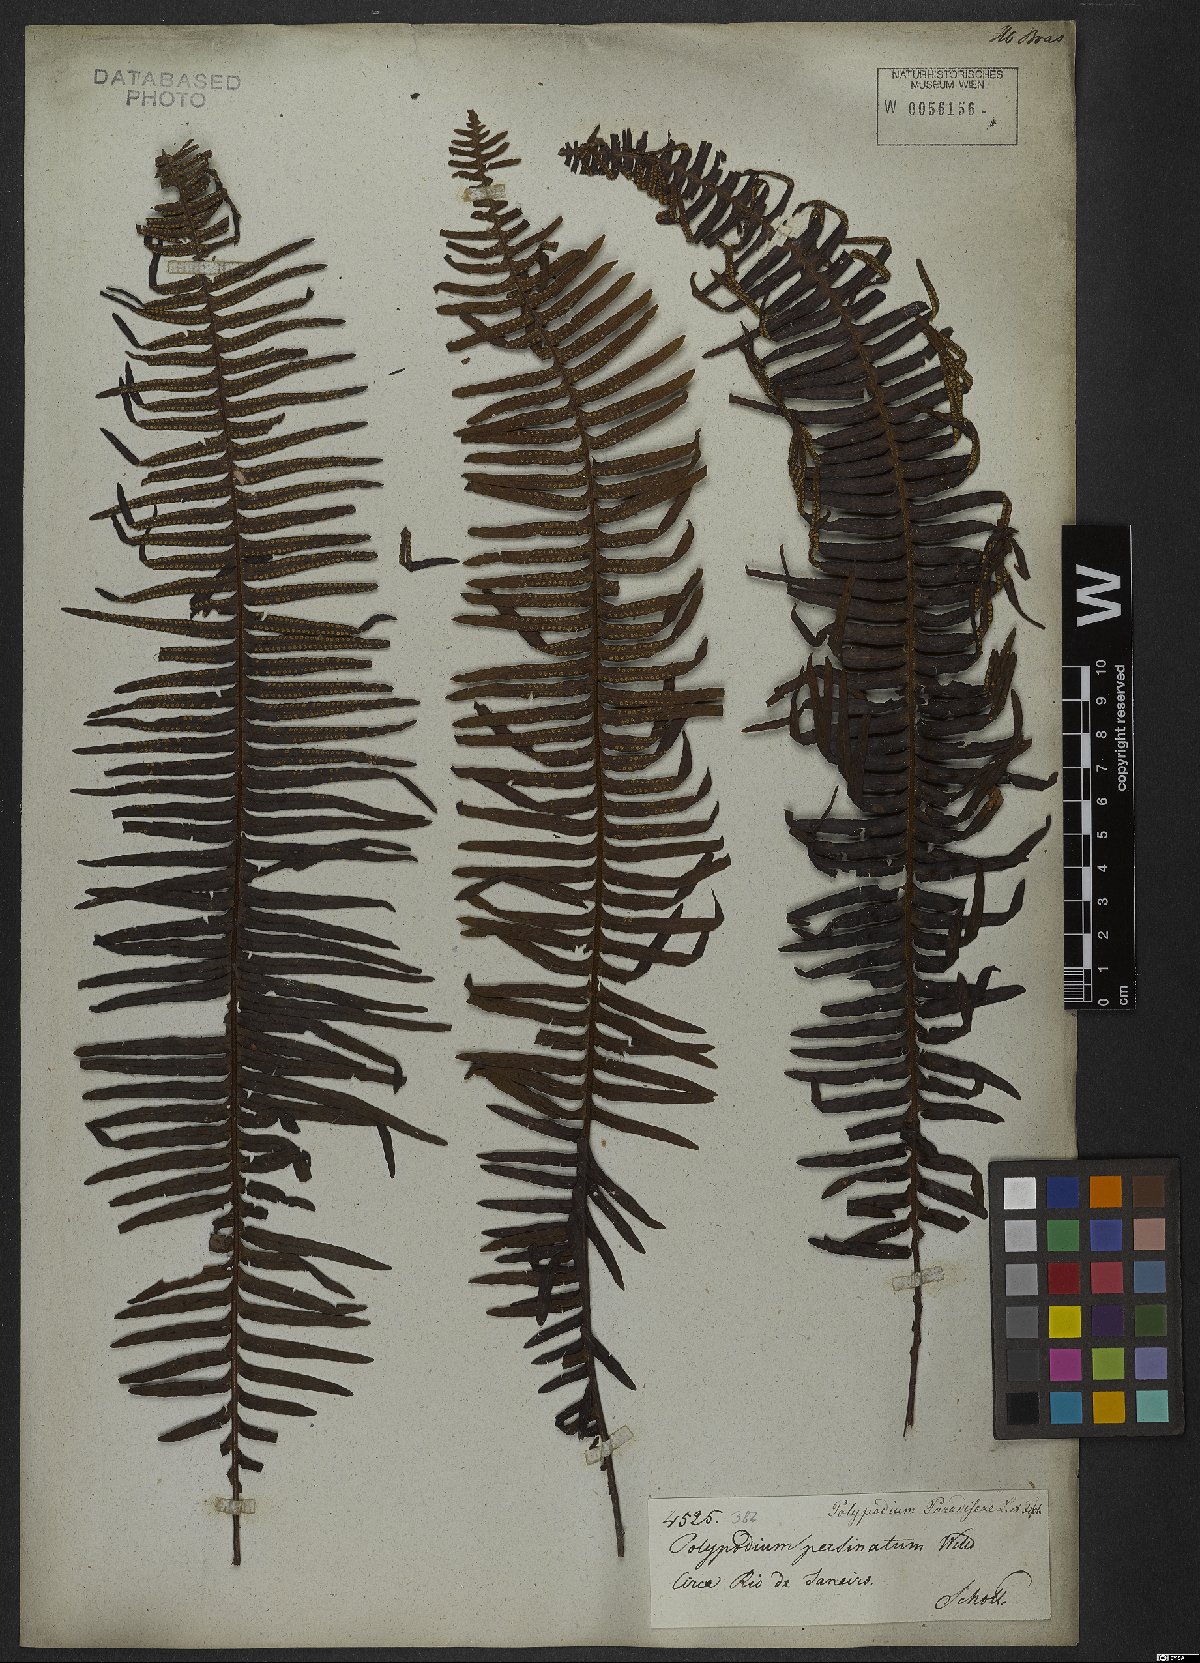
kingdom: Plantae
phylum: Tracheophyta
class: Polypodiopsida
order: Polypodiales
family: Polypodiaceae
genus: Pecluma
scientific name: Pecluma pectinata
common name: Msasa fern
